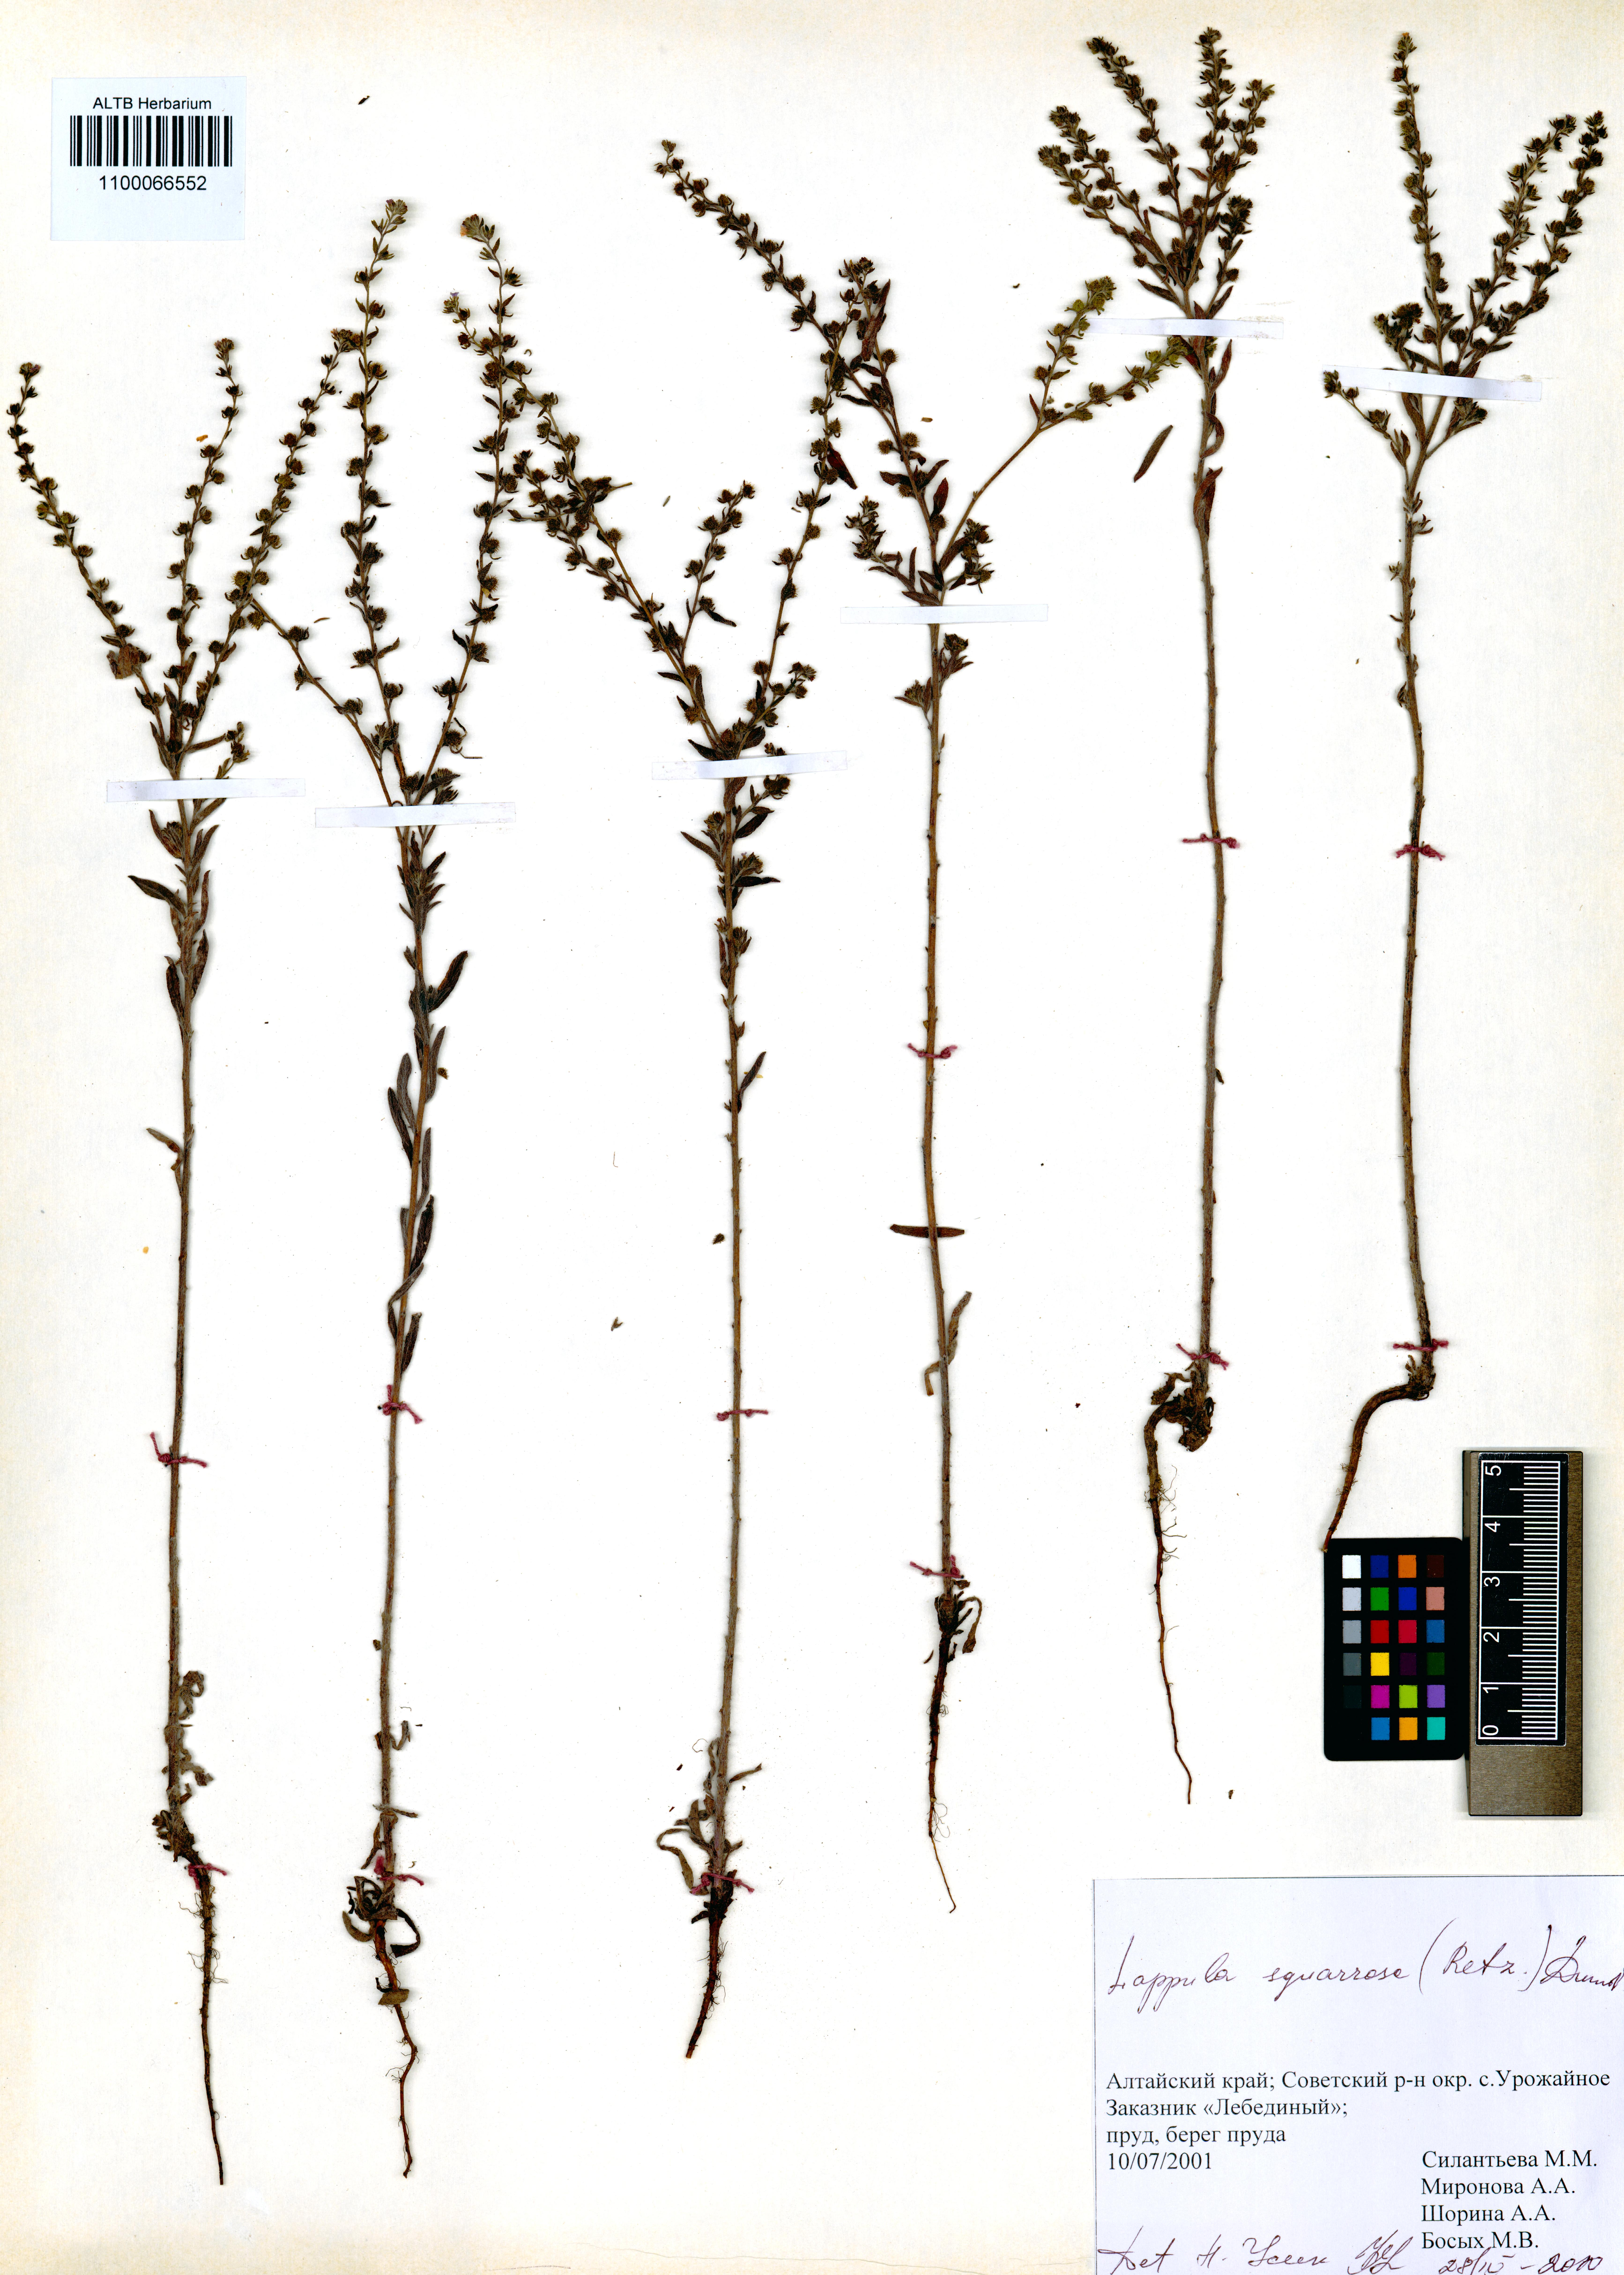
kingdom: Plantae
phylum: Tracheophyta
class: Magnoliopsida
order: Boraginales
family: Boraginaceae
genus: Lappula
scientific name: Lappula squarrosa
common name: European stickseed
